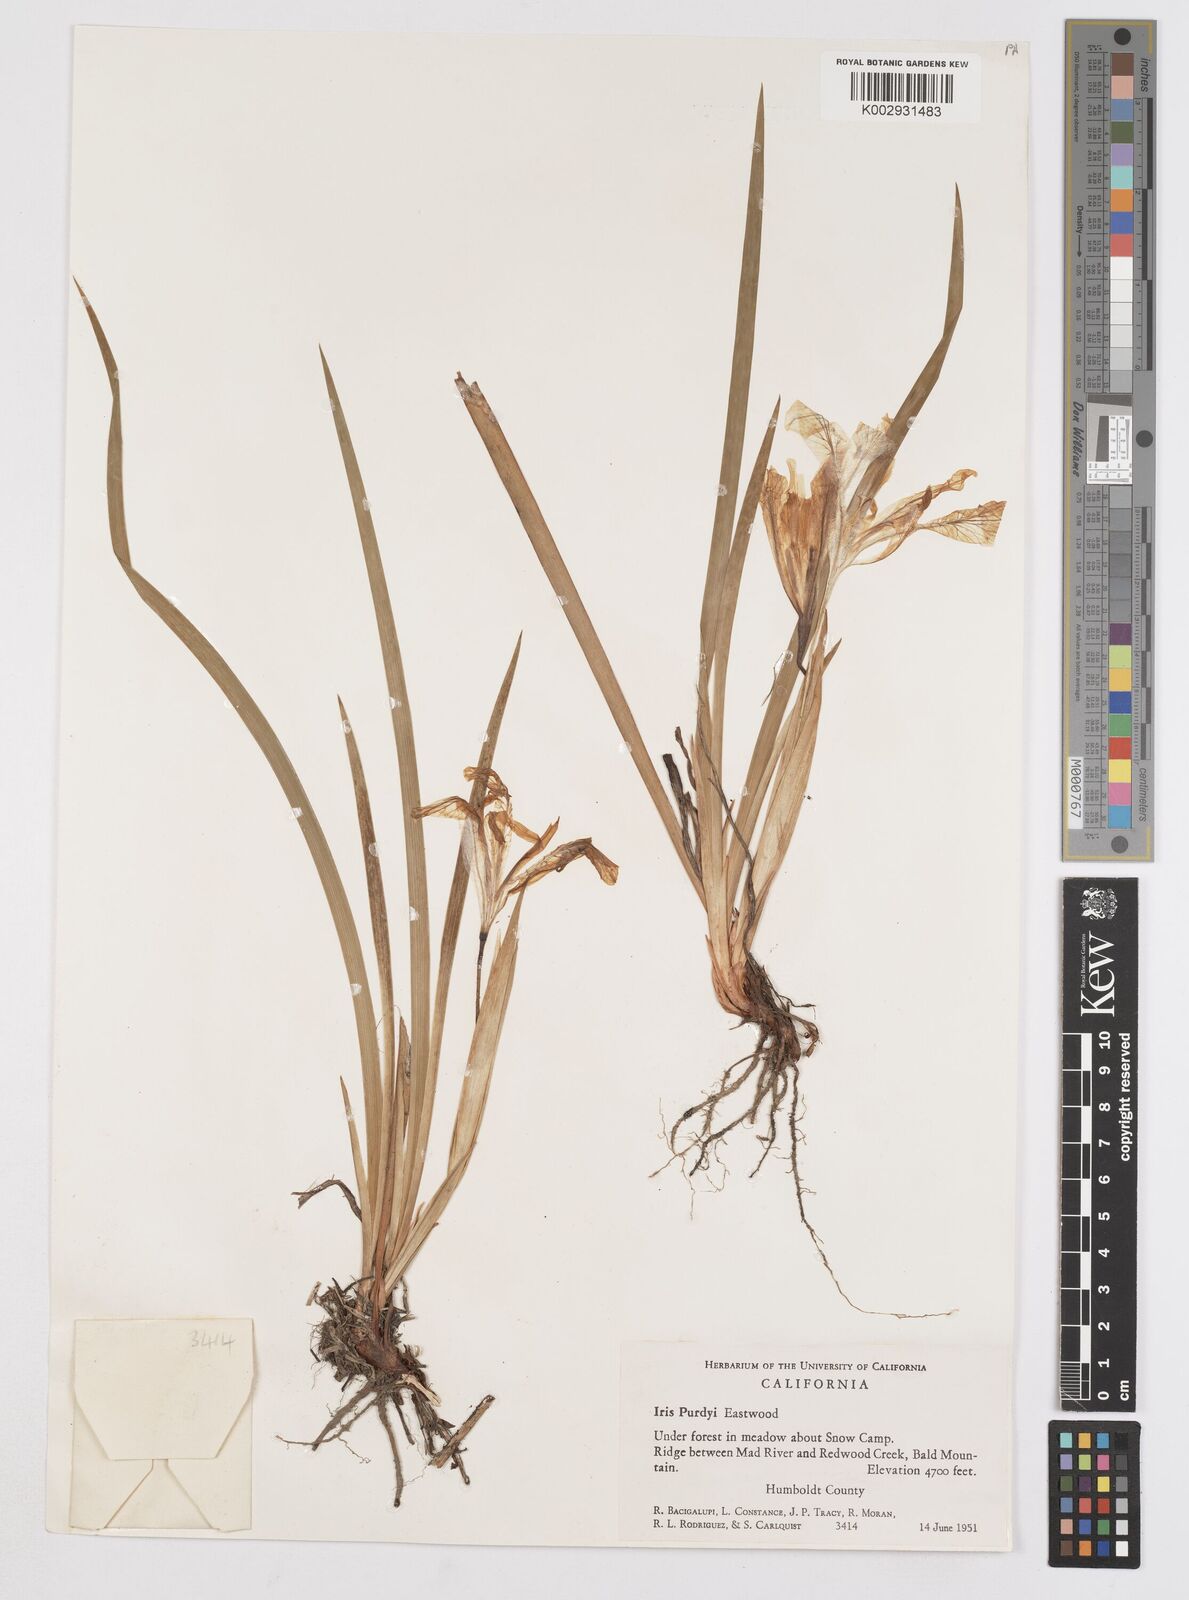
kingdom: Plantae
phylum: Tracheophyta
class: Liliopsida
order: Asparagales
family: Iridaceae
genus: Iris
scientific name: Iris purdyi
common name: Purdy's iris
